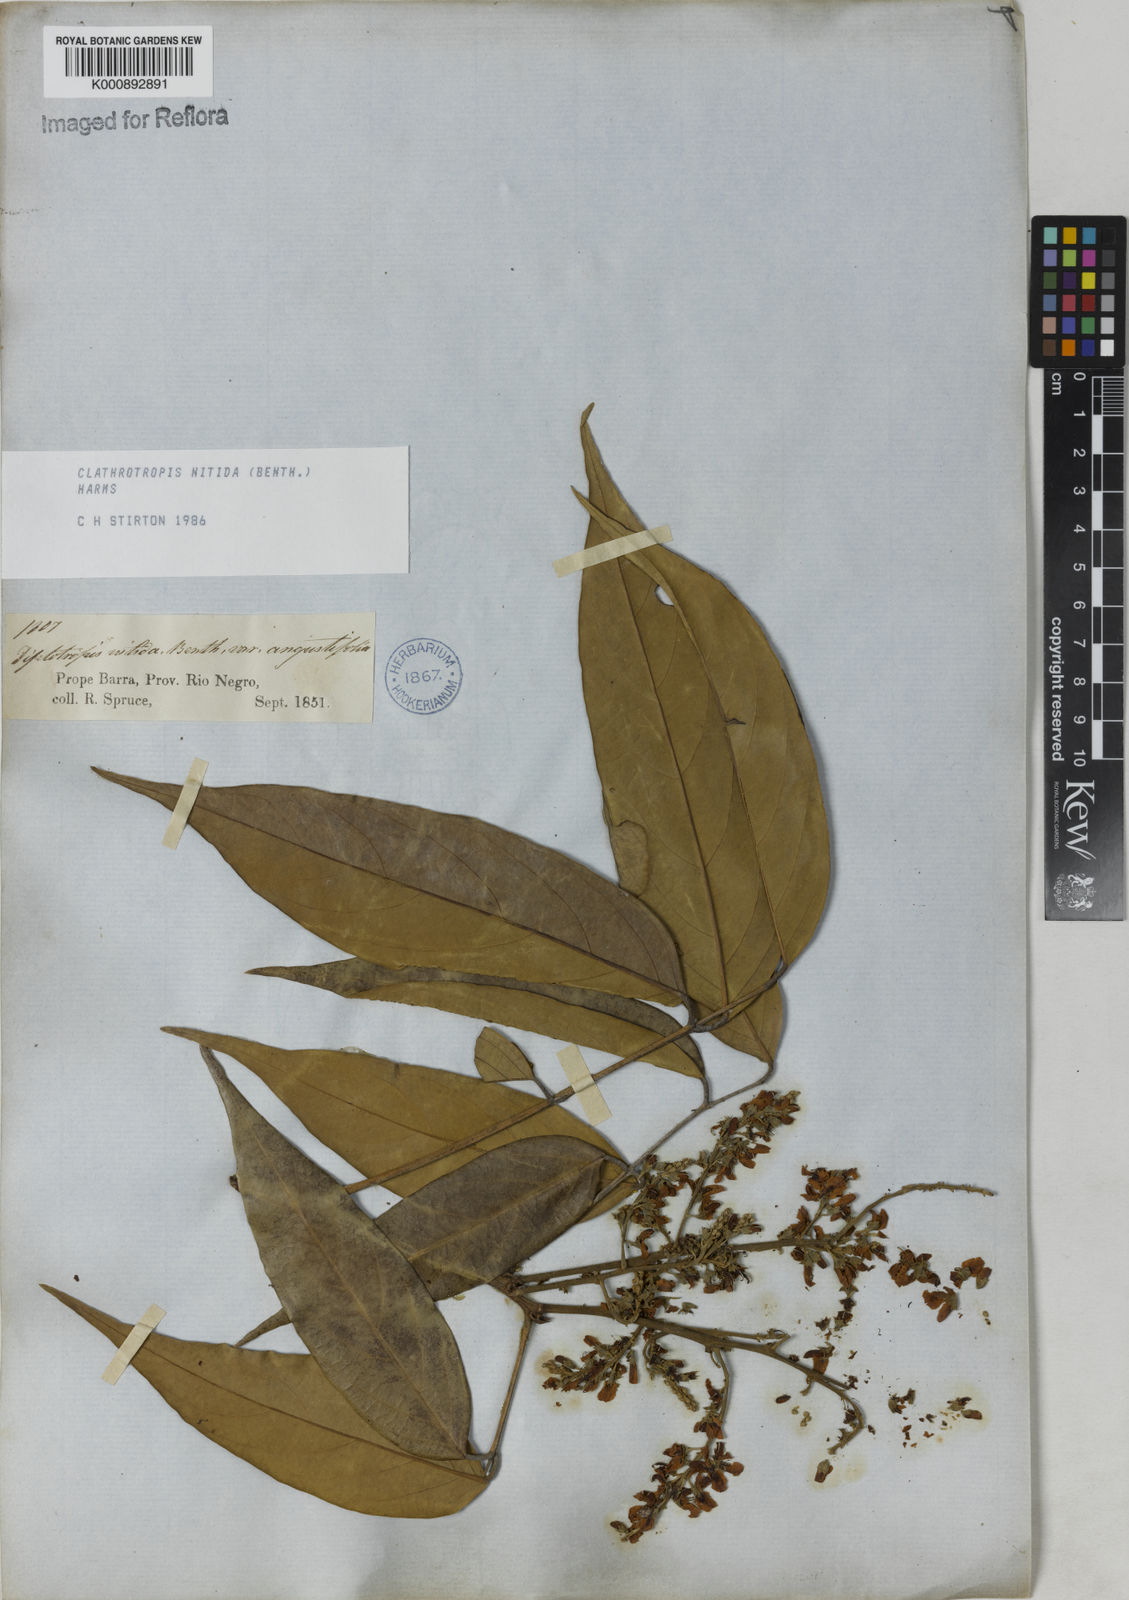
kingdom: Plantae
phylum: Tracheophyta
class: Magnoliopsida
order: Fabales
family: Fabaceae
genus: Clathrotropis
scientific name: Clathrotropis nitida
